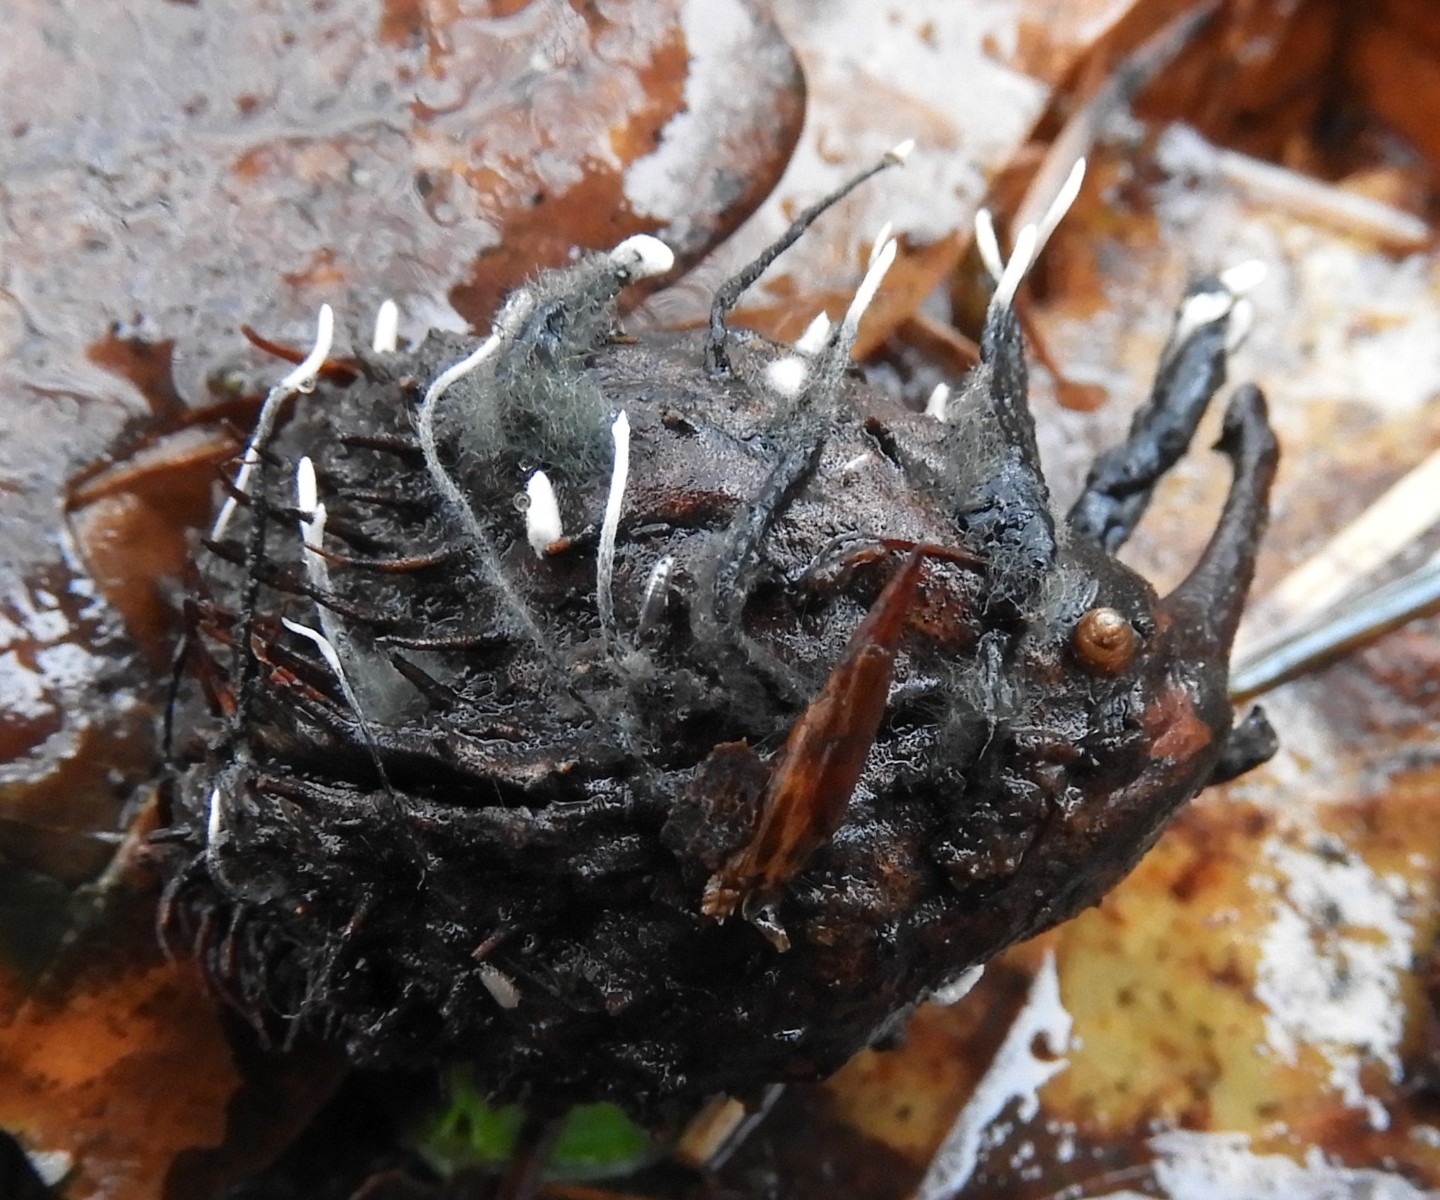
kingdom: Fungi
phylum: Ascomycota
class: Sordariomycetes
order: Xylariales
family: Xylariaceae
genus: Xylaria
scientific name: Xylaria carpophila
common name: bogskål-stødsvamp
